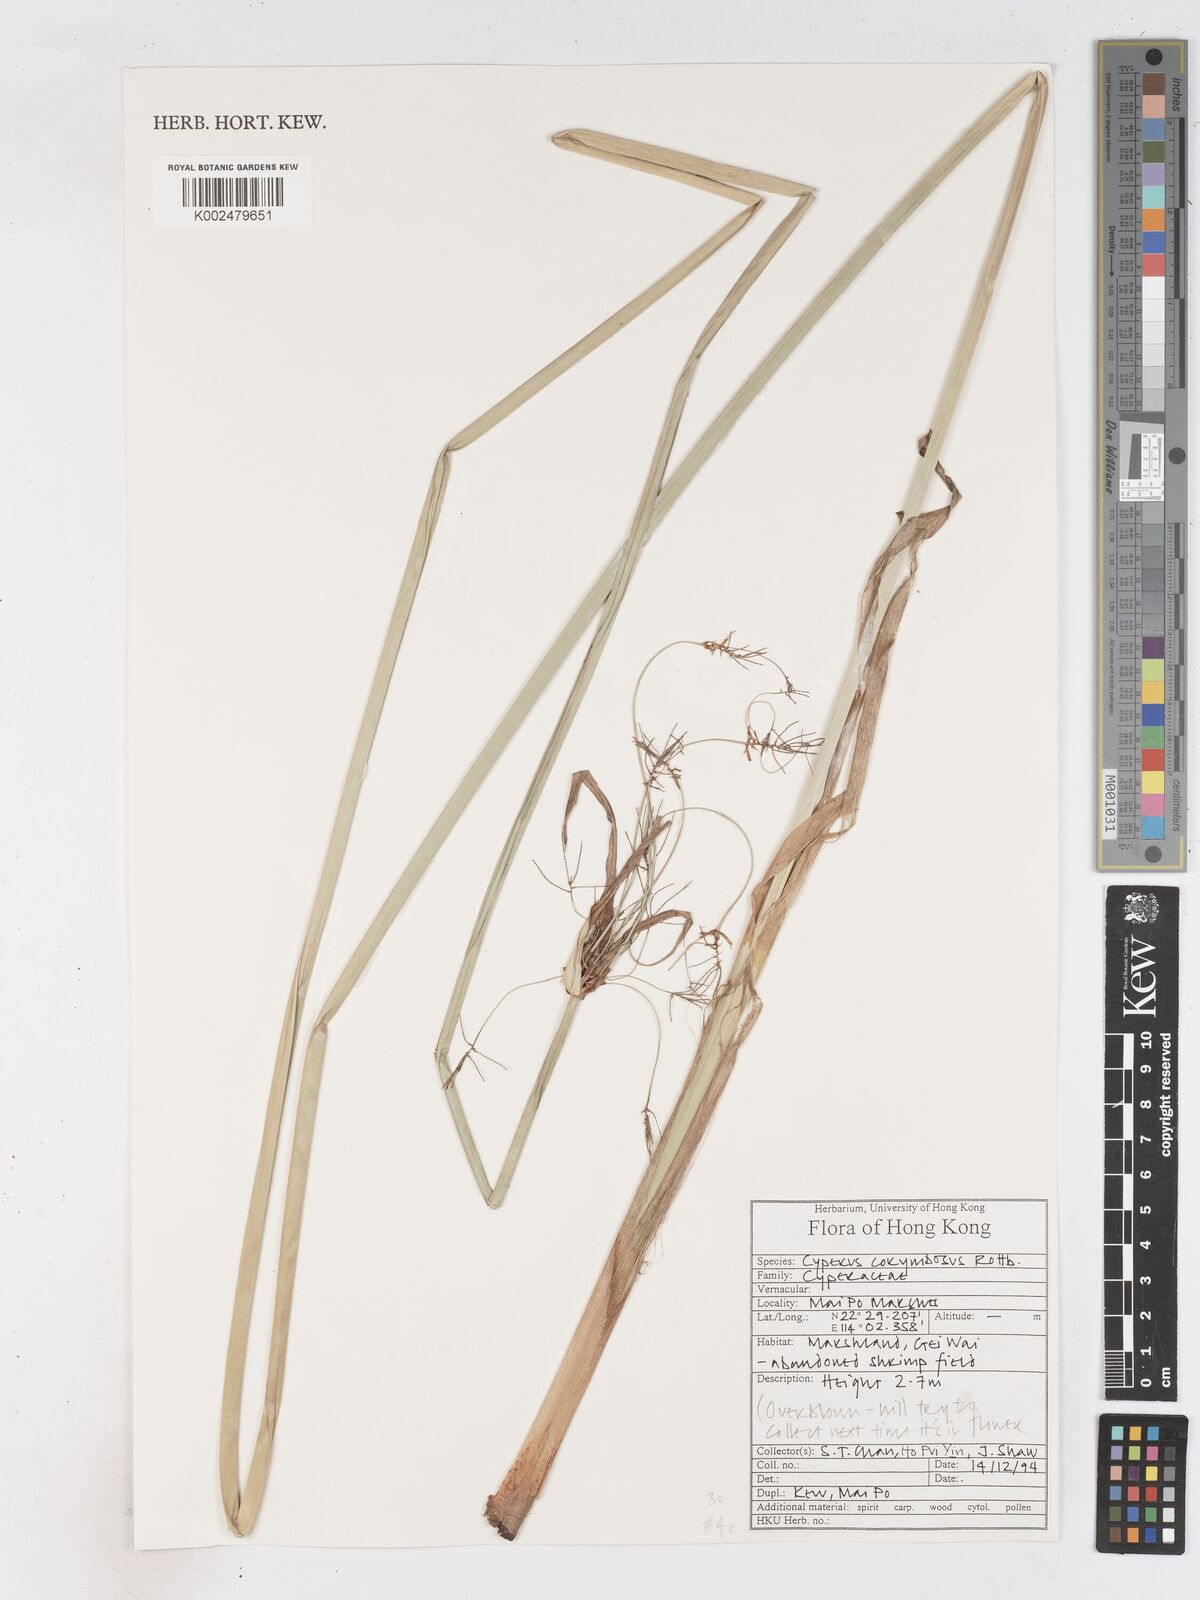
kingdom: Plantae
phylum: Tracheophyta
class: Liliopsida
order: Poales
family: Cyperaceae
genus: Cyperus
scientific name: Cyperus corymbosus
